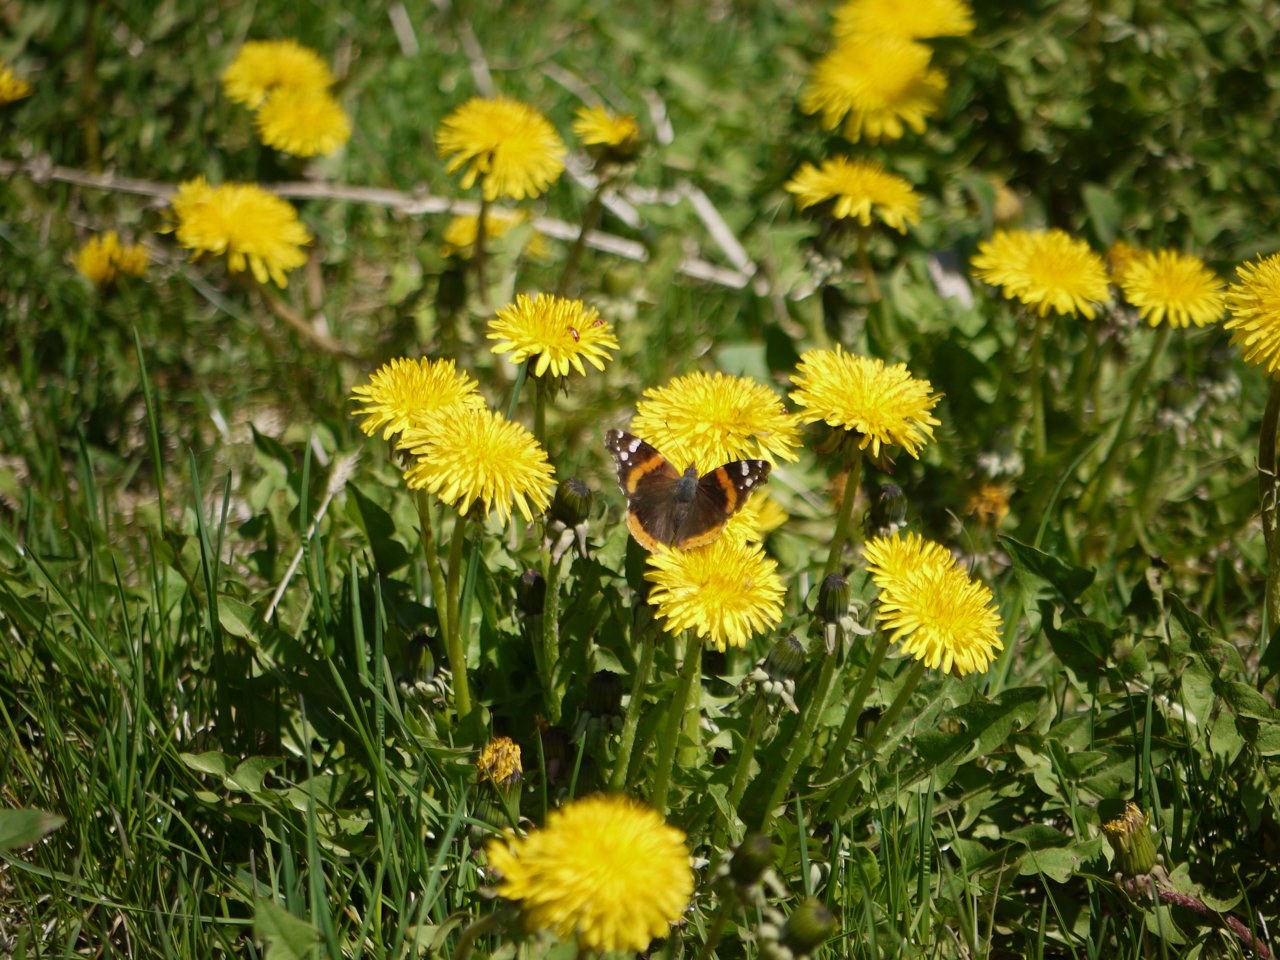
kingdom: Animalia
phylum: Arthropoda
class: Insecta
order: Lepidoptera
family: Nymphalidae
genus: Vanessa
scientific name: Vanessa atalanta
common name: Red Admiral
